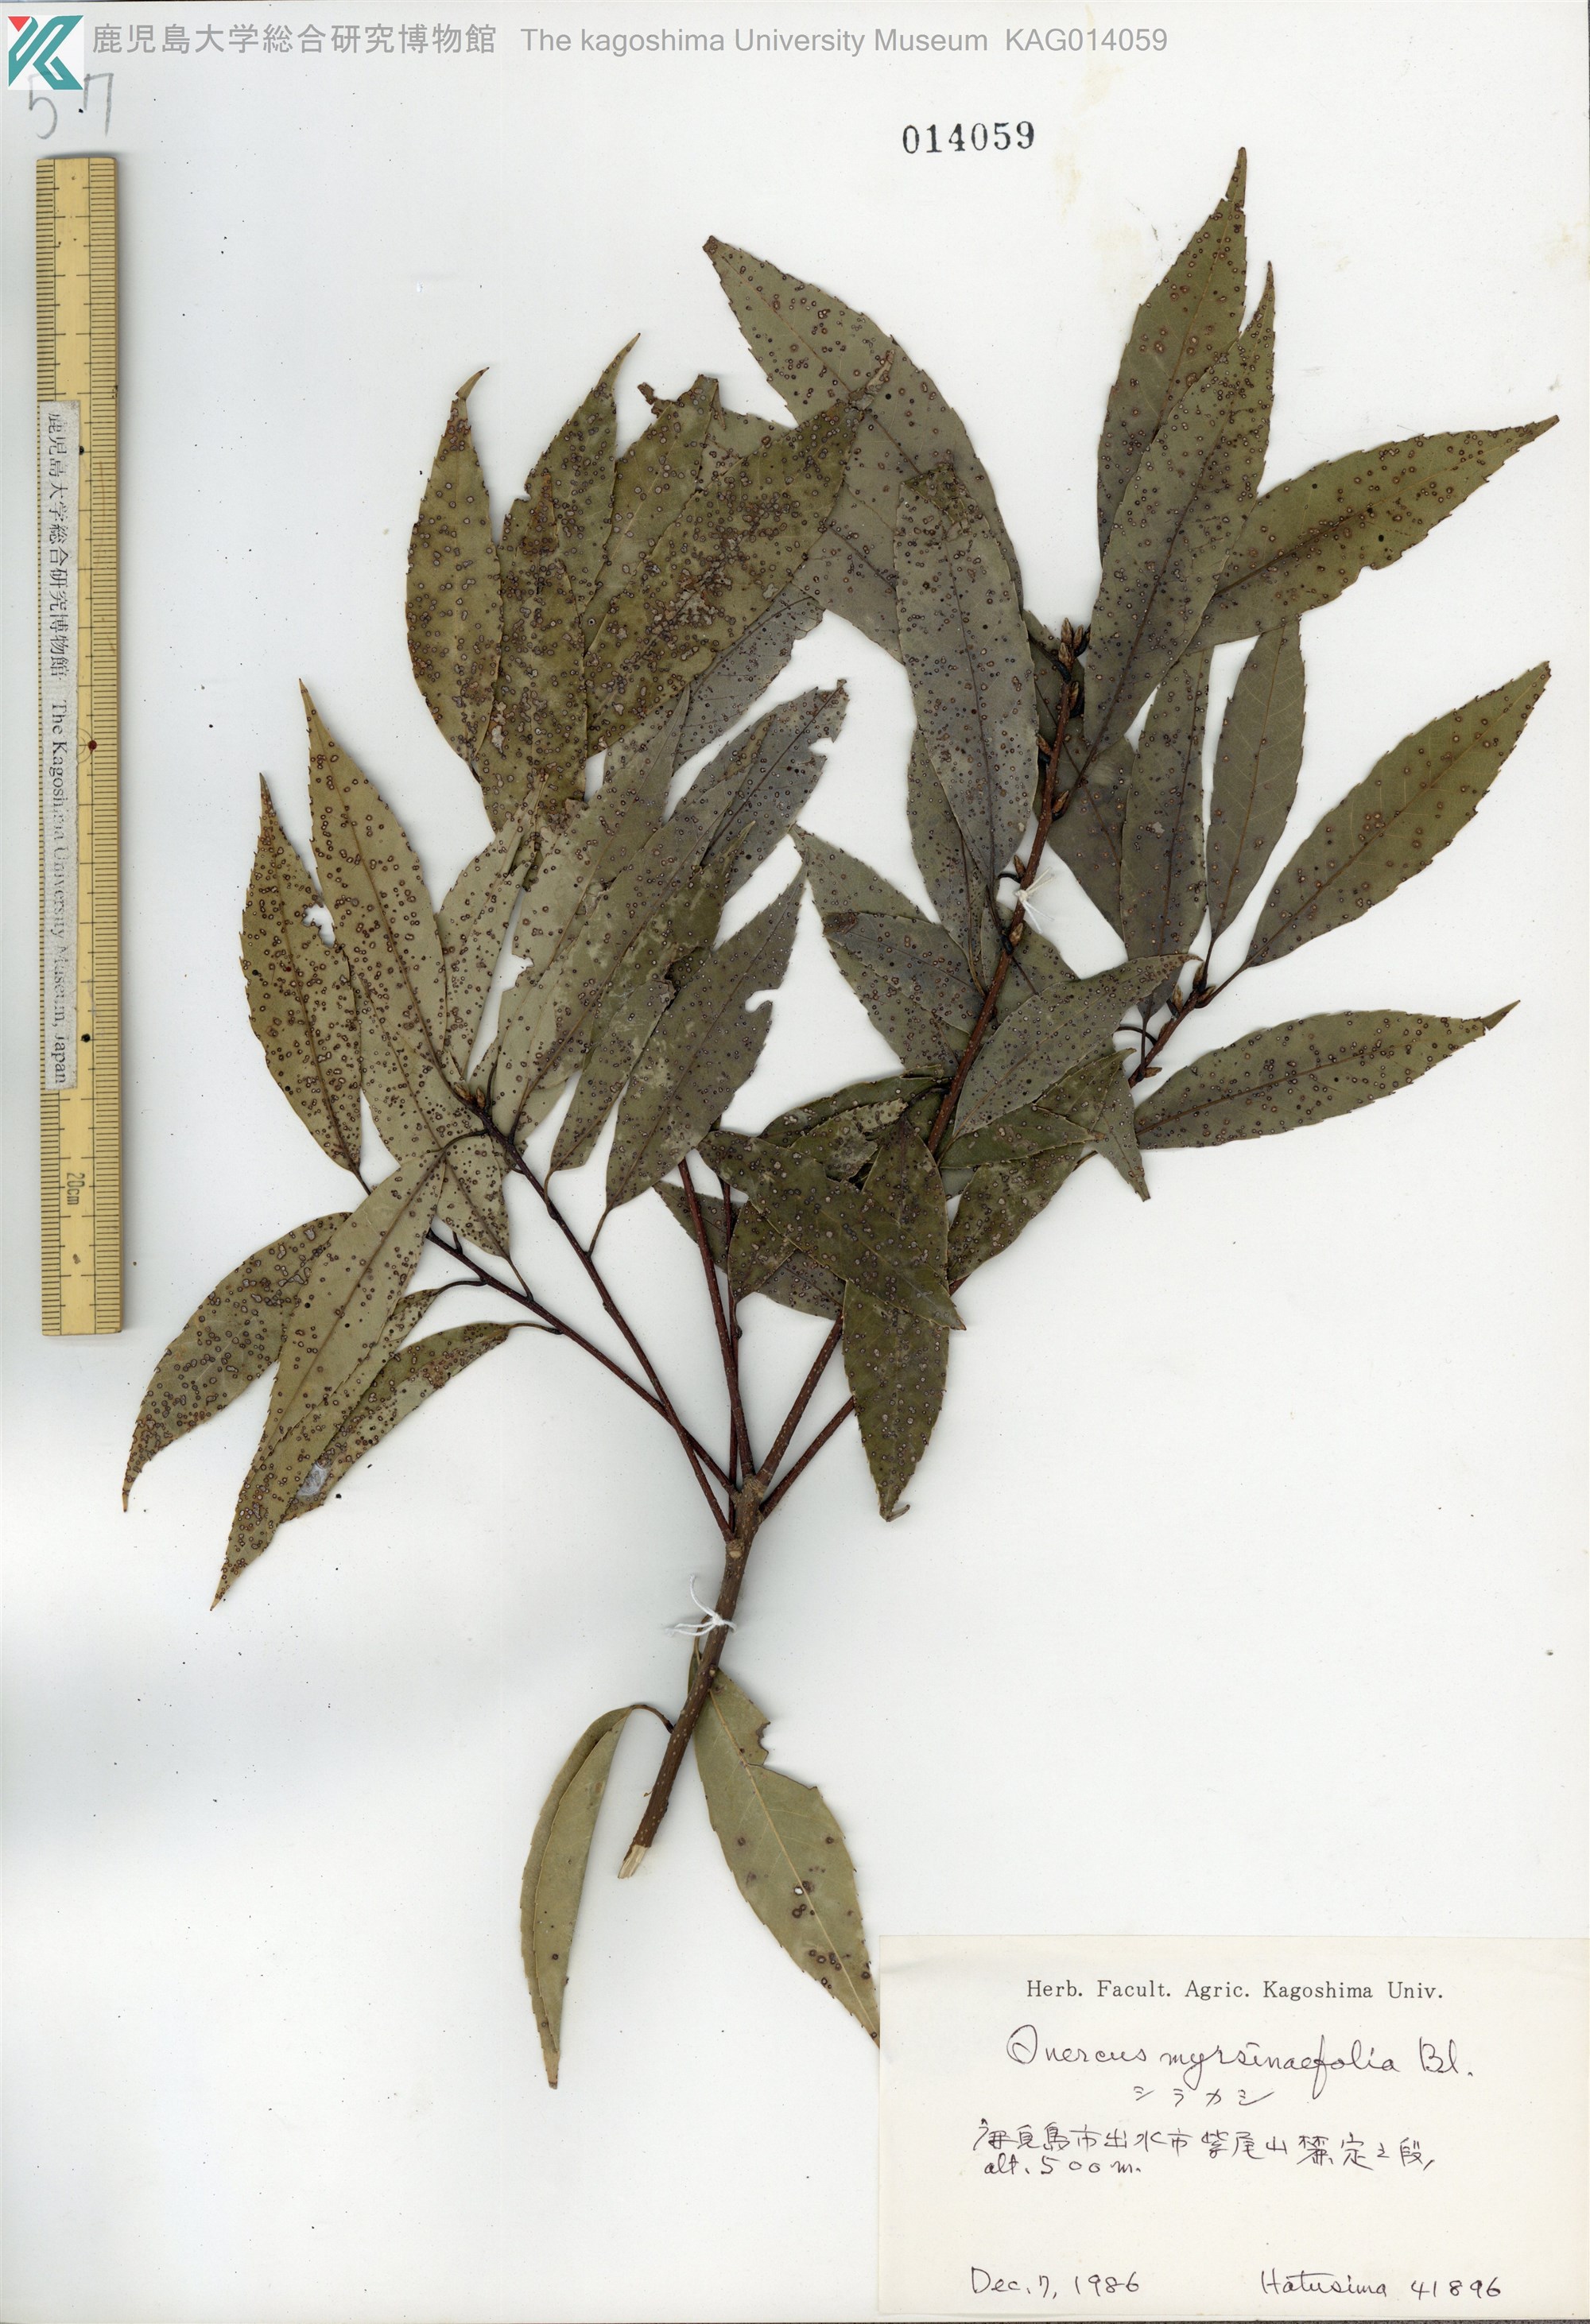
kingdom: Plantae
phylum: Tracheophyta
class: Magnoliopsida
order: Fagales
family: Fagaceae
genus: Quercus
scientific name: Quercus myrsinaefolia
